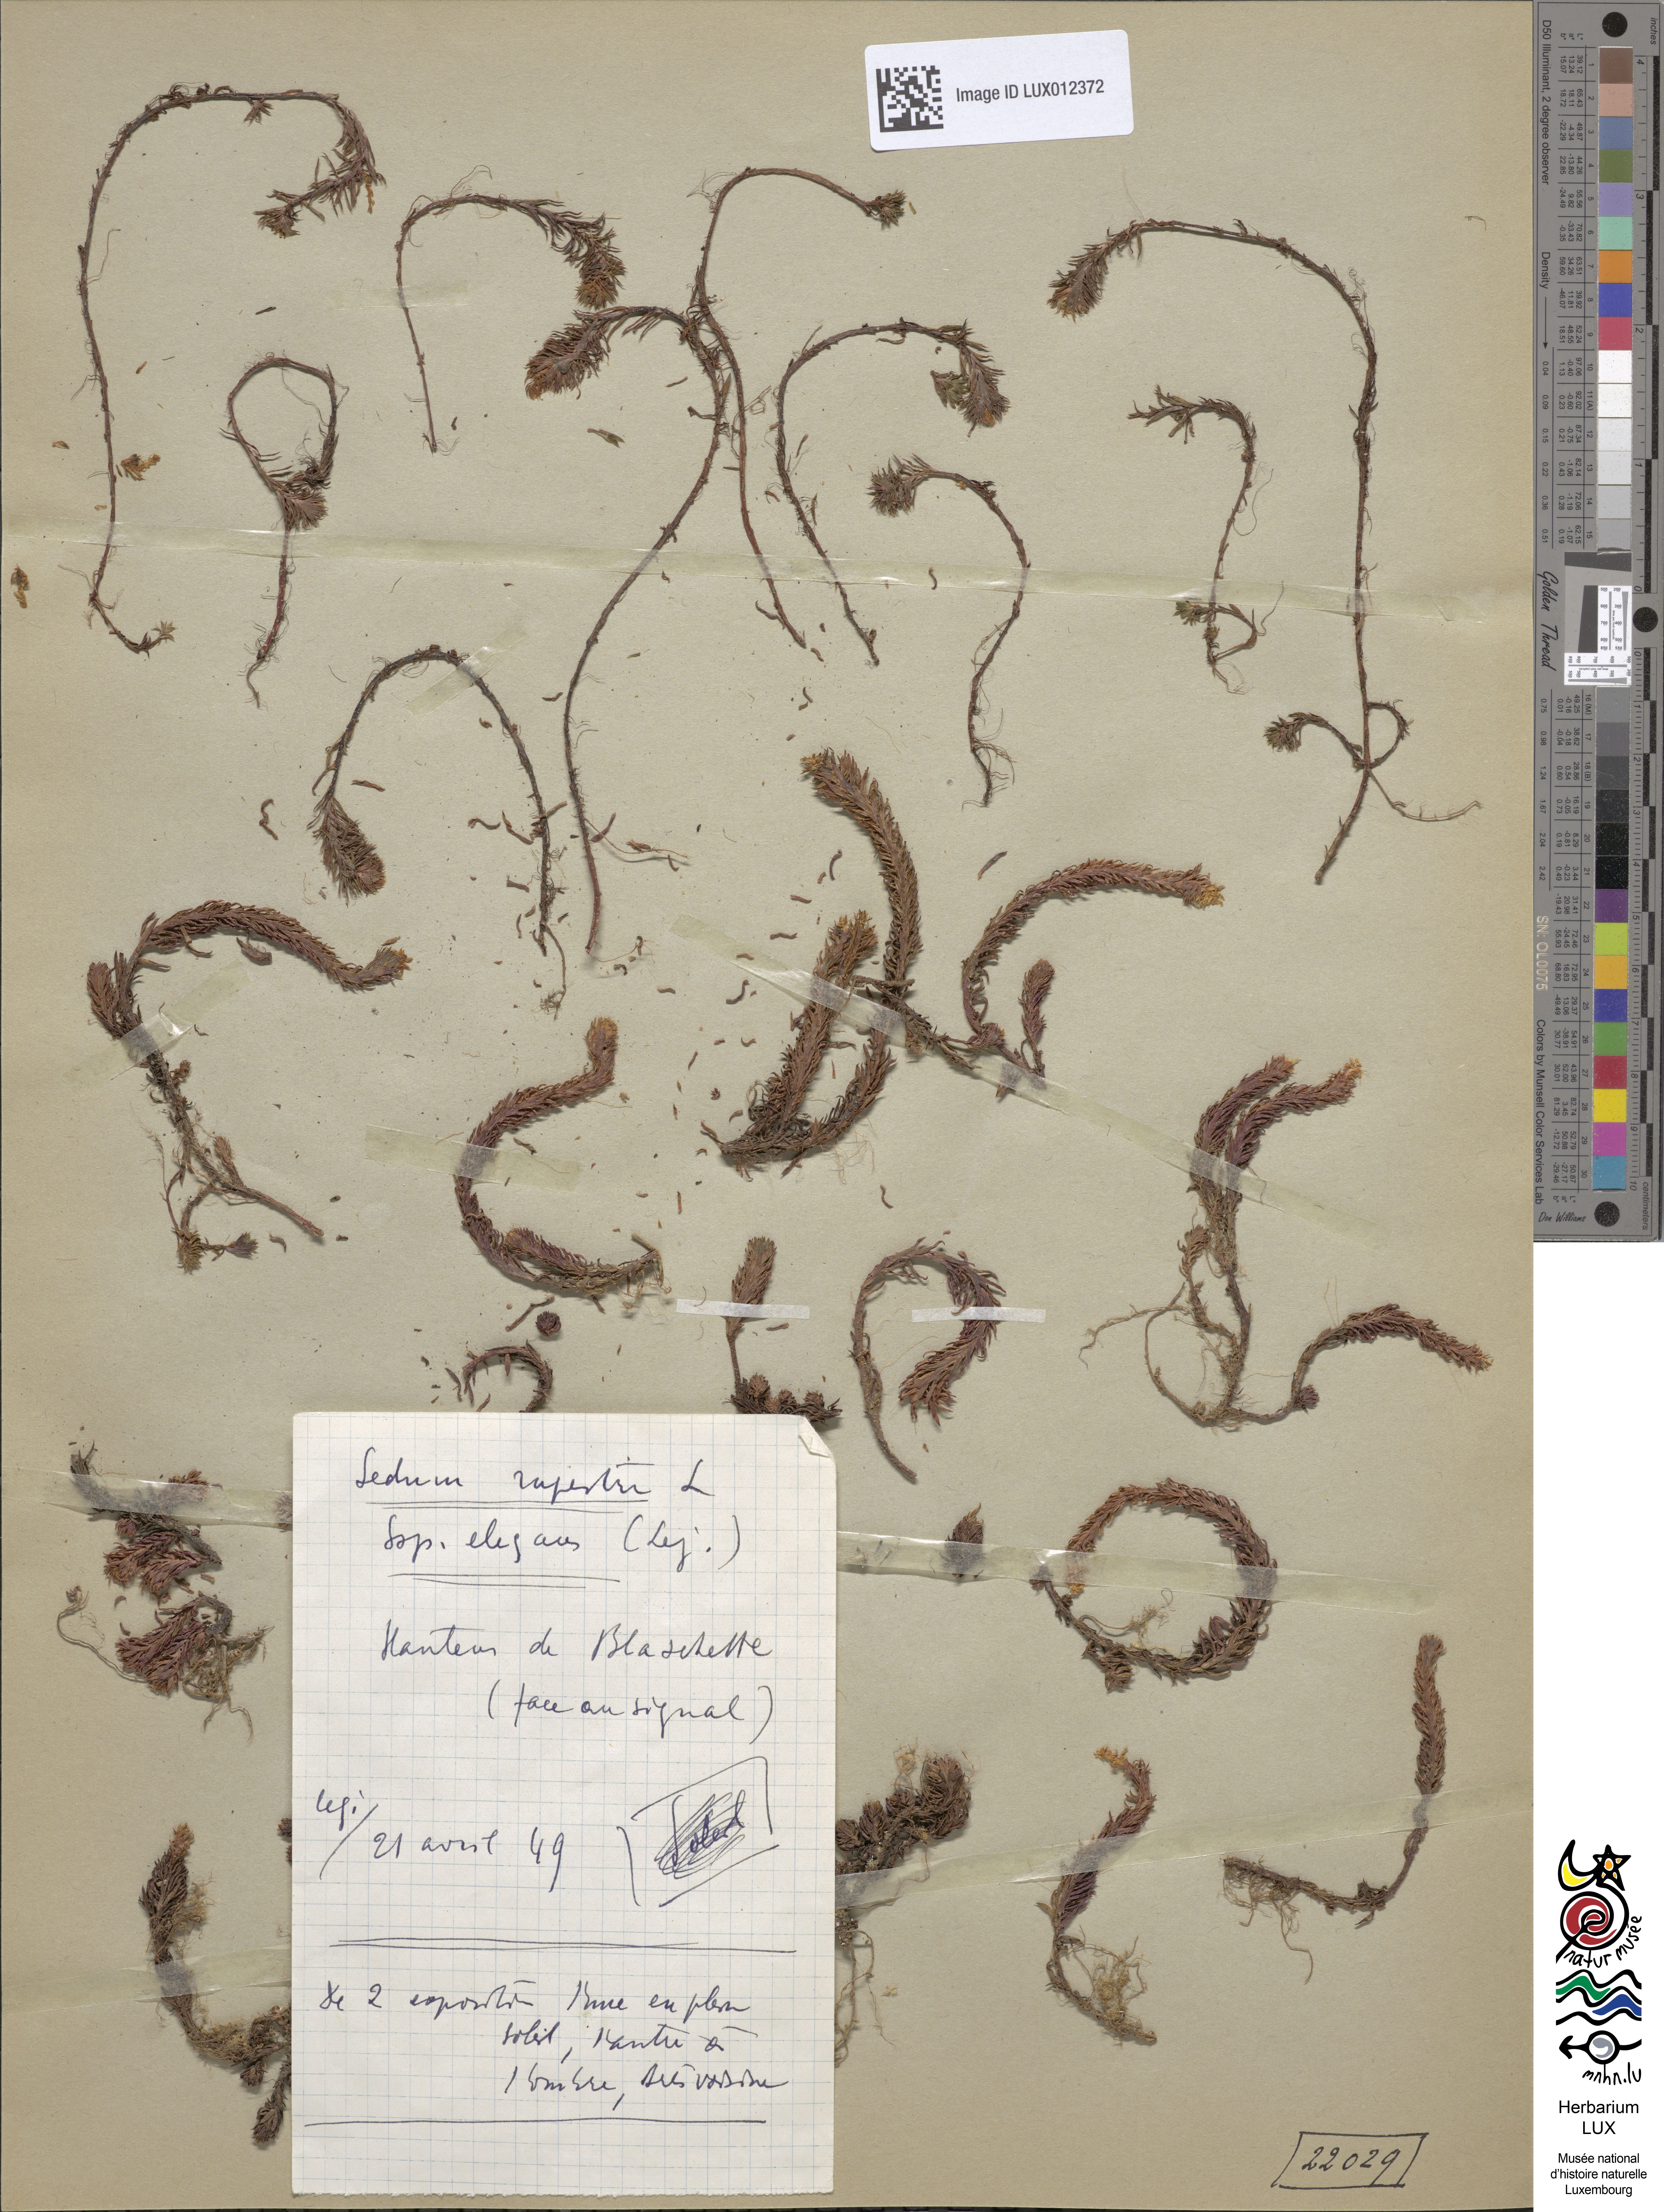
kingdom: Plantae
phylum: Tracheophyta
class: Magnoliopsida
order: Saxifragales
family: Crassulaceae
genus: Petrosedum
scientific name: Petrosedum forsterianum
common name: Forster's stonecrop
